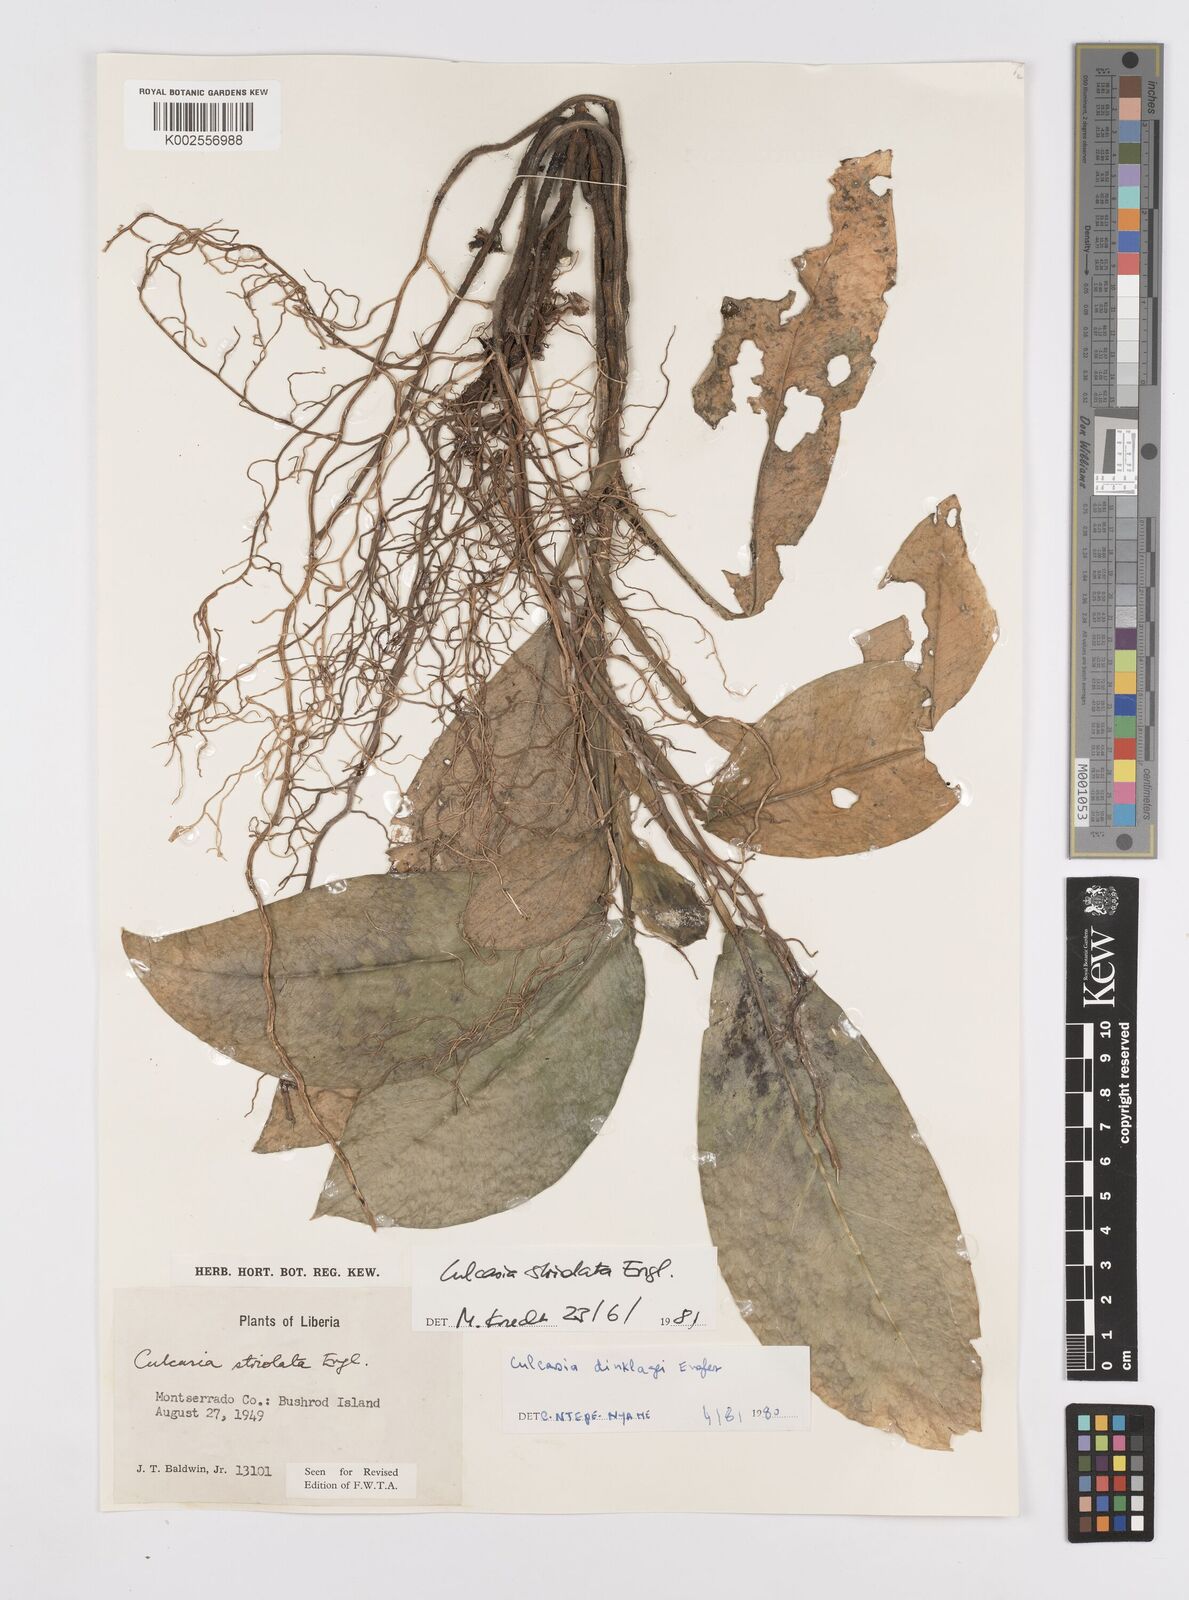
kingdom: Plantae
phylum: Tracheophyta
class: Liliopsida
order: Alismatales
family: Araceae
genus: Culcasia
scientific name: Culcasia striolata
